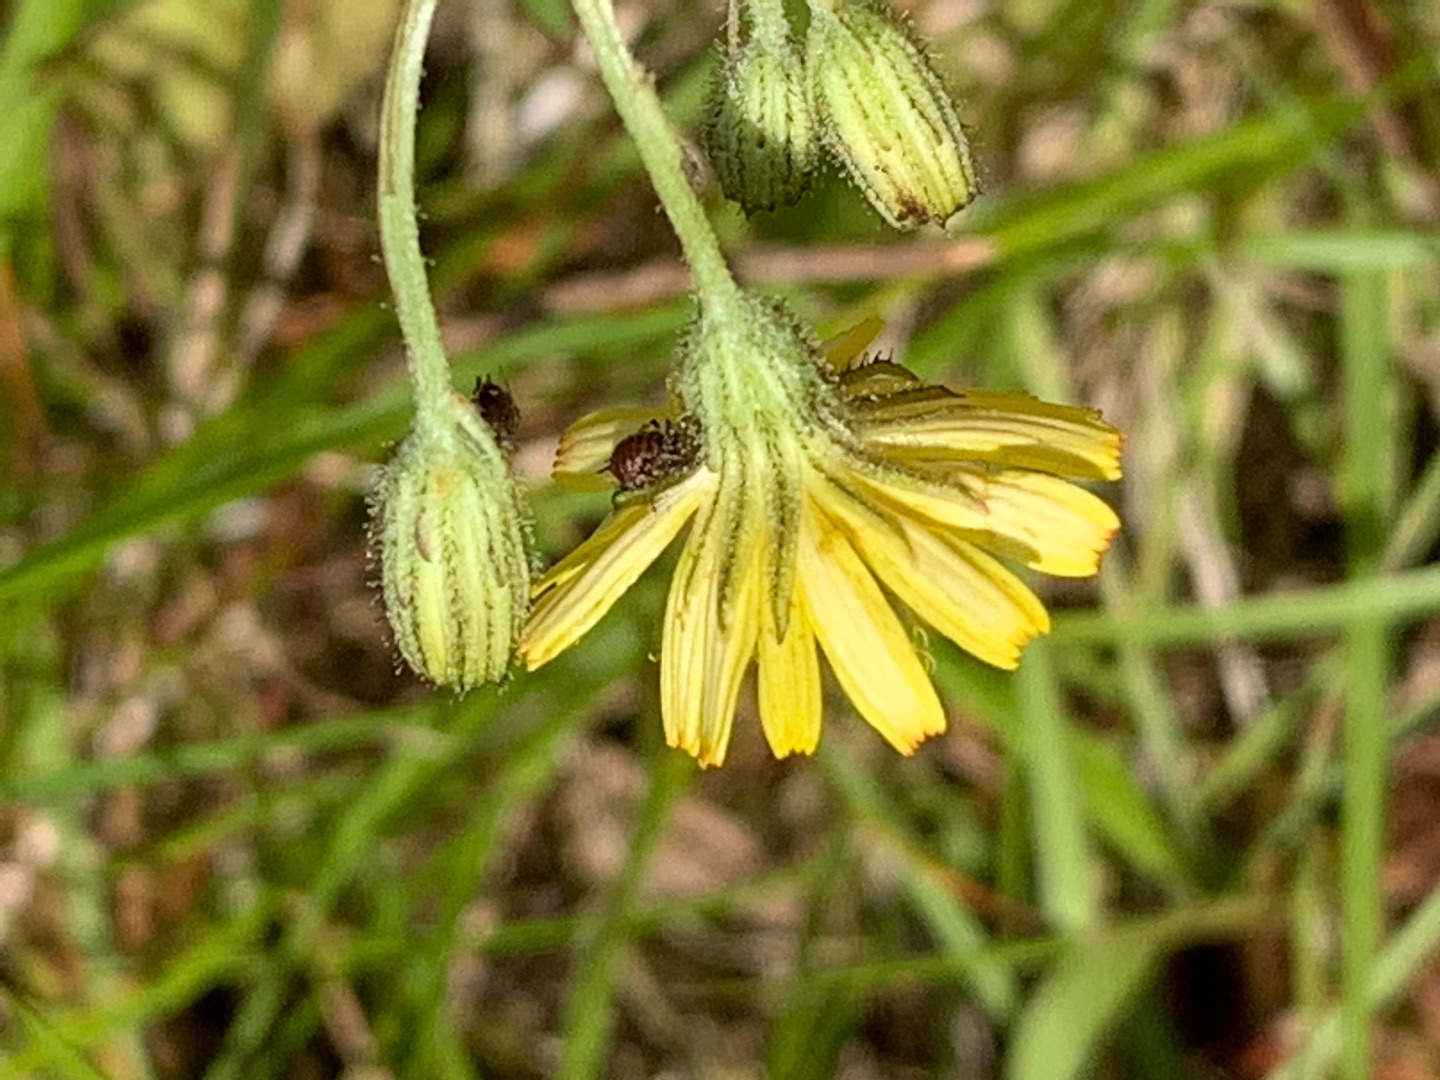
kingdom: Plantae
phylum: Tracheophyta
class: Magnoliopsida
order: Asterales
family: Asteraceae
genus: Crepis
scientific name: Crepis capillaris
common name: Grøn høgeskæg
